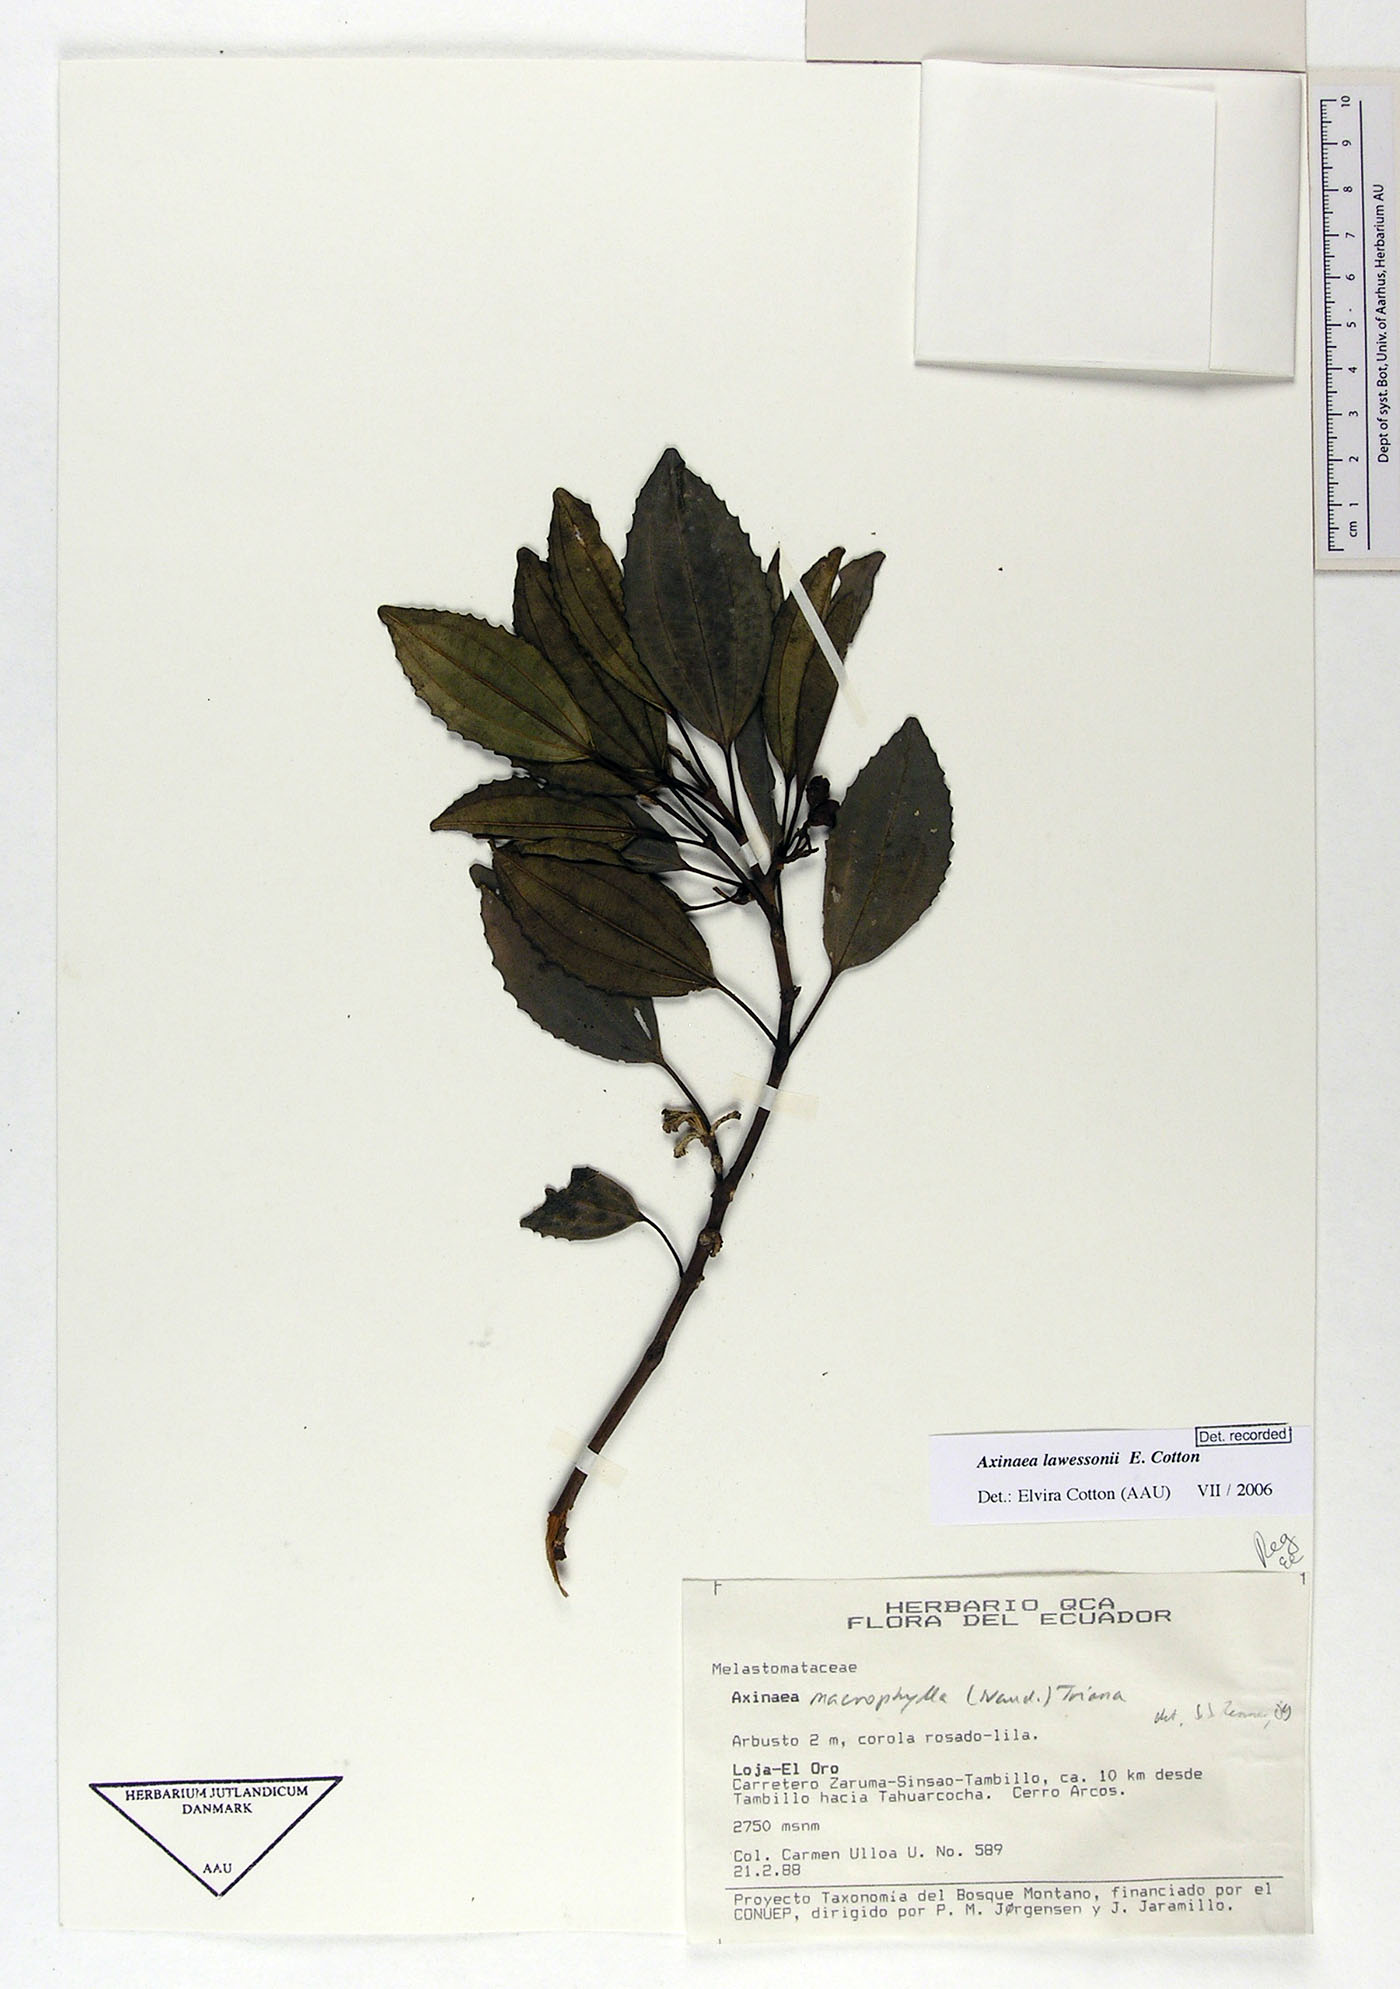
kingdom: Plantae
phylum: Tracheophyta
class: Magnoliopsida
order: Myrtales
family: Melastomataceae
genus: Axinaea
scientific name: Axinaea lawessonii
